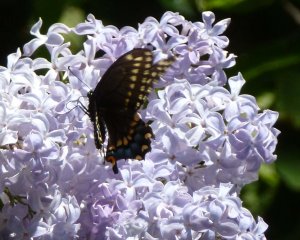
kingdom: Animalia
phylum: Arthropoda
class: Insecta
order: Lepidoptera
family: Papilionidae
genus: Papilio
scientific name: Papilio polyxenes
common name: Black Swallowtail
